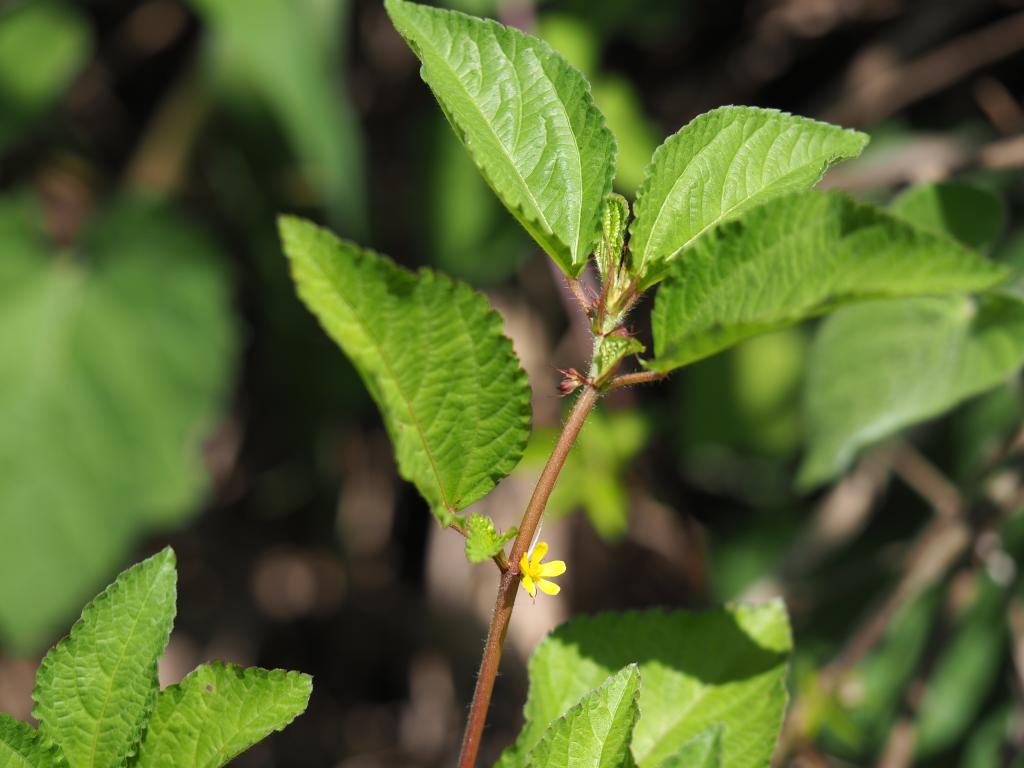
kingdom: Plantae
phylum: Tracheophyta
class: Magnoliopsida
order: Malvales
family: Malvaceae
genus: Corchorus
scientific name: Corchorus aestuans
